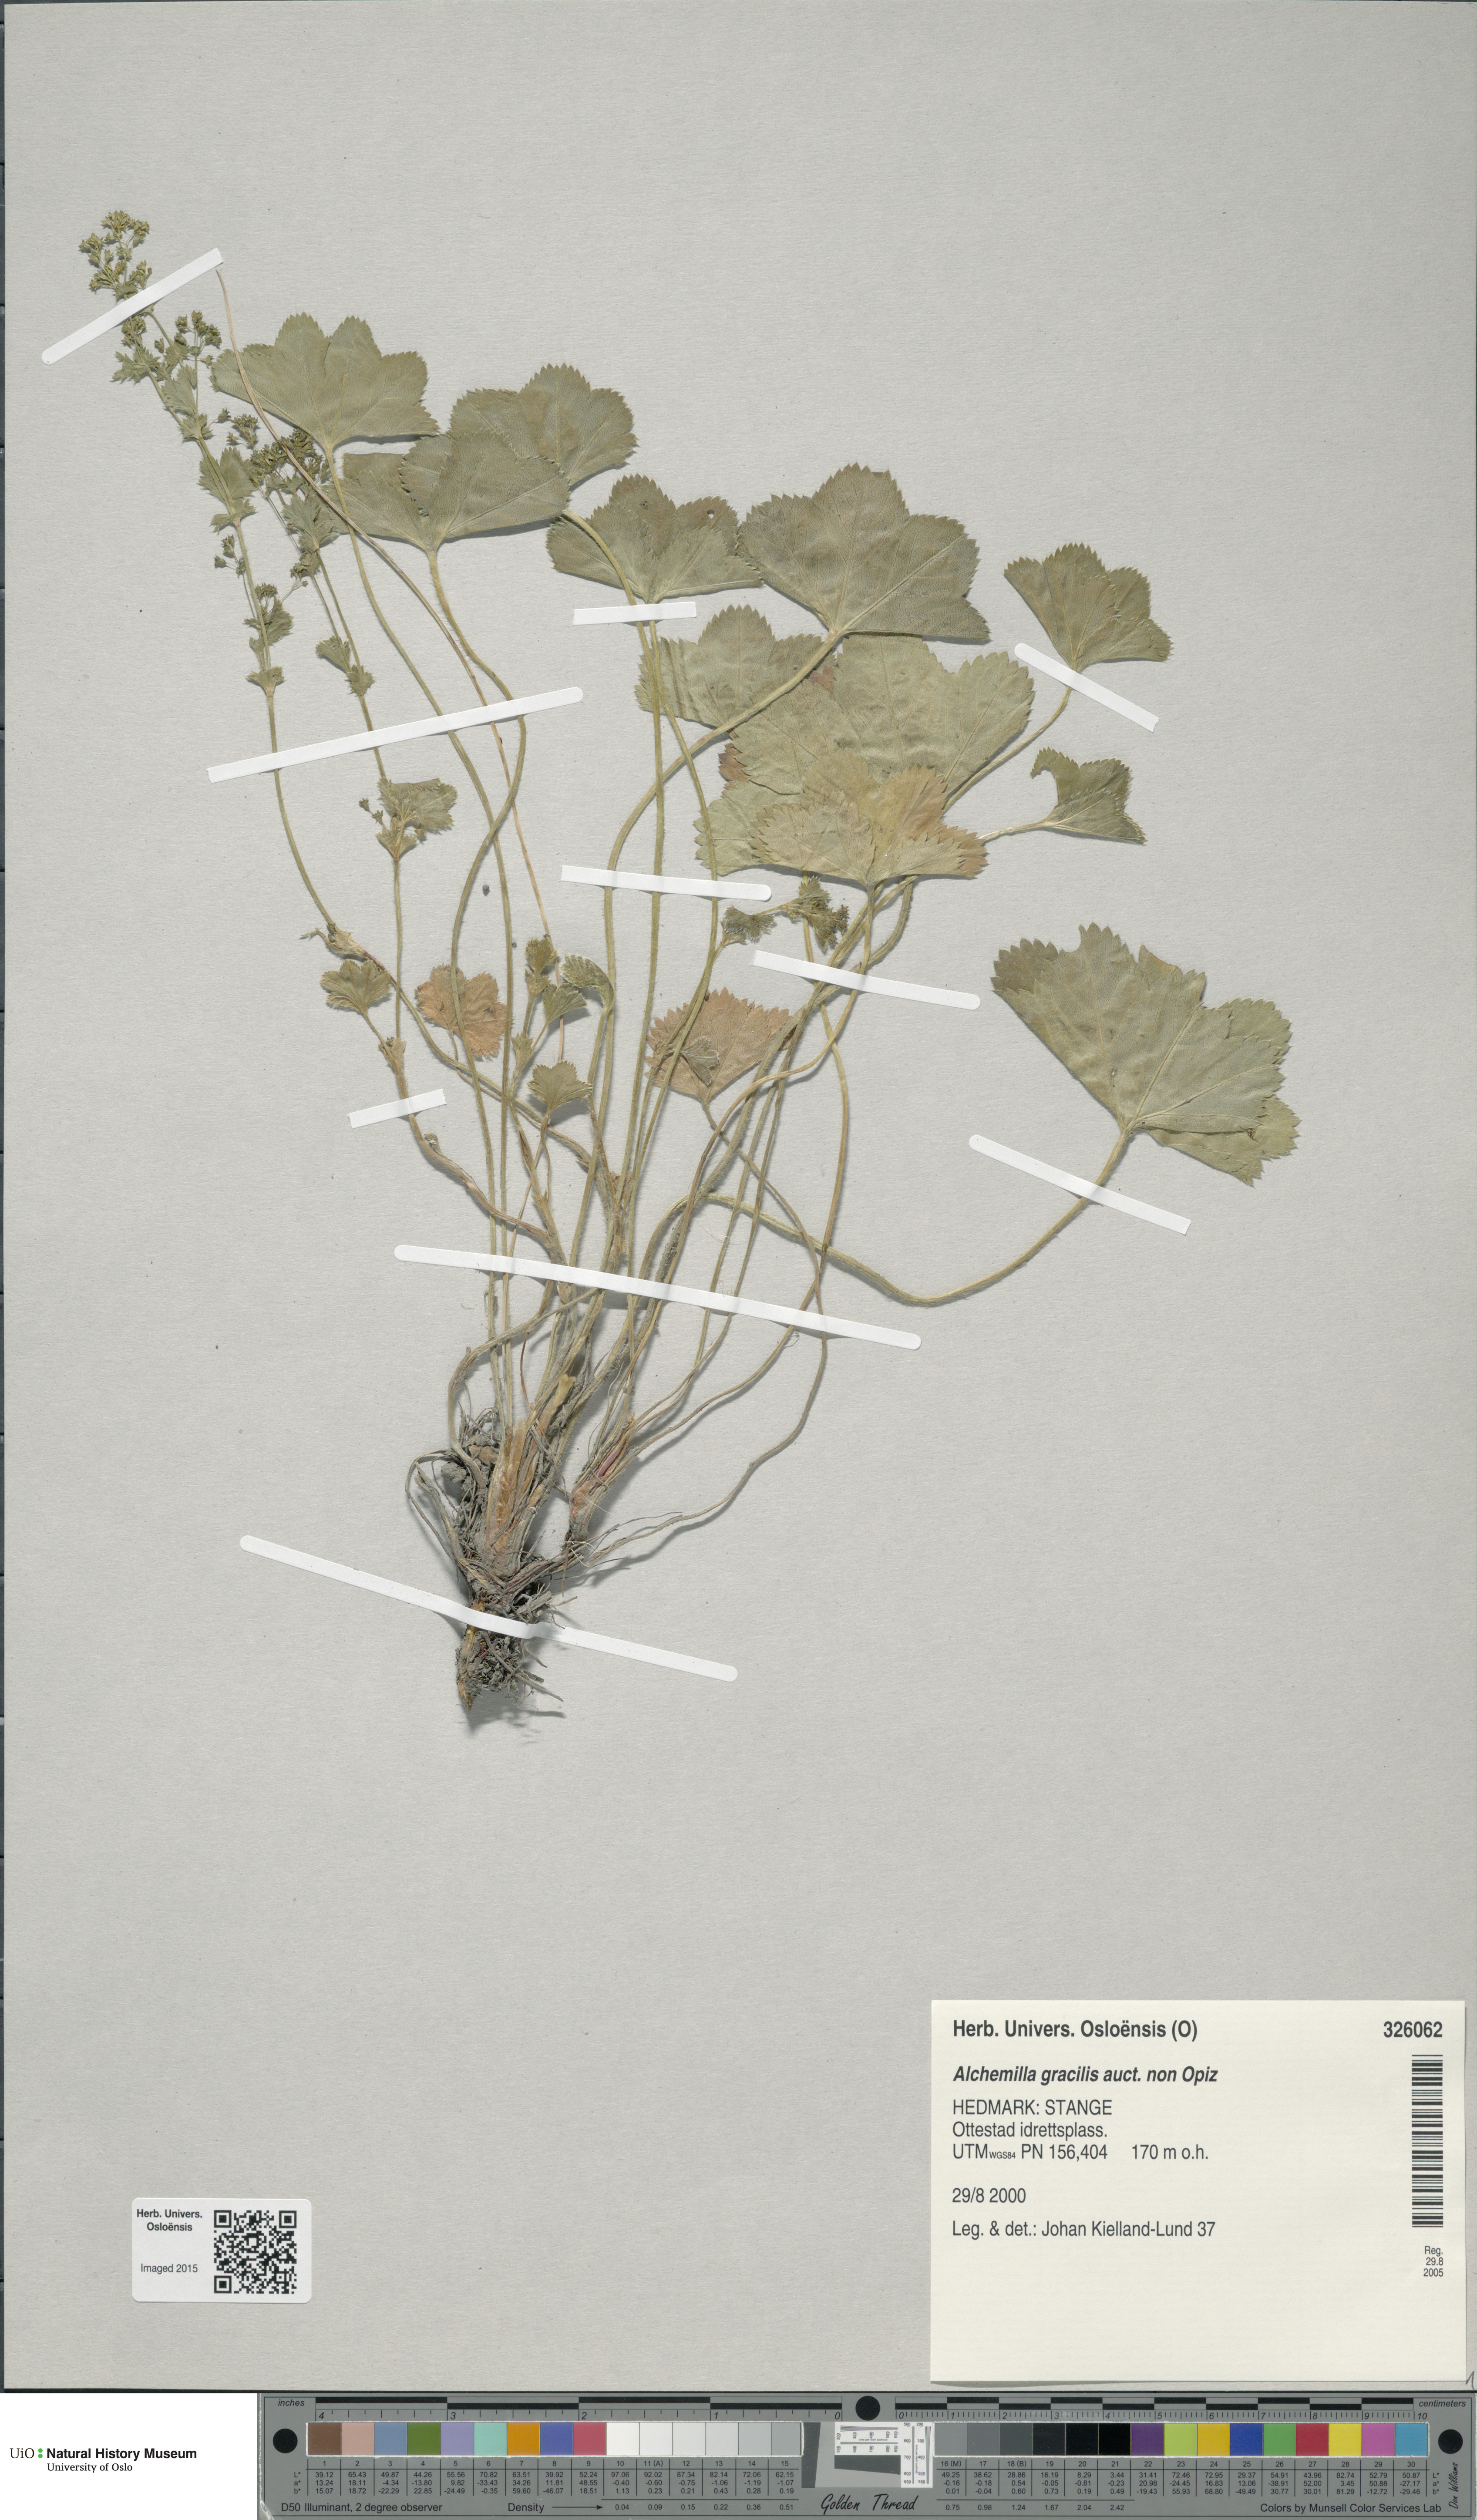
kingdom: Plantae
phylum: Tracheophyta
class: Magnoliopsida
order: Rosales
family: Rosaceae
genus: Alchemilla
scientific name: Alchemilla micans
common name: Gleaming lady's mantle
